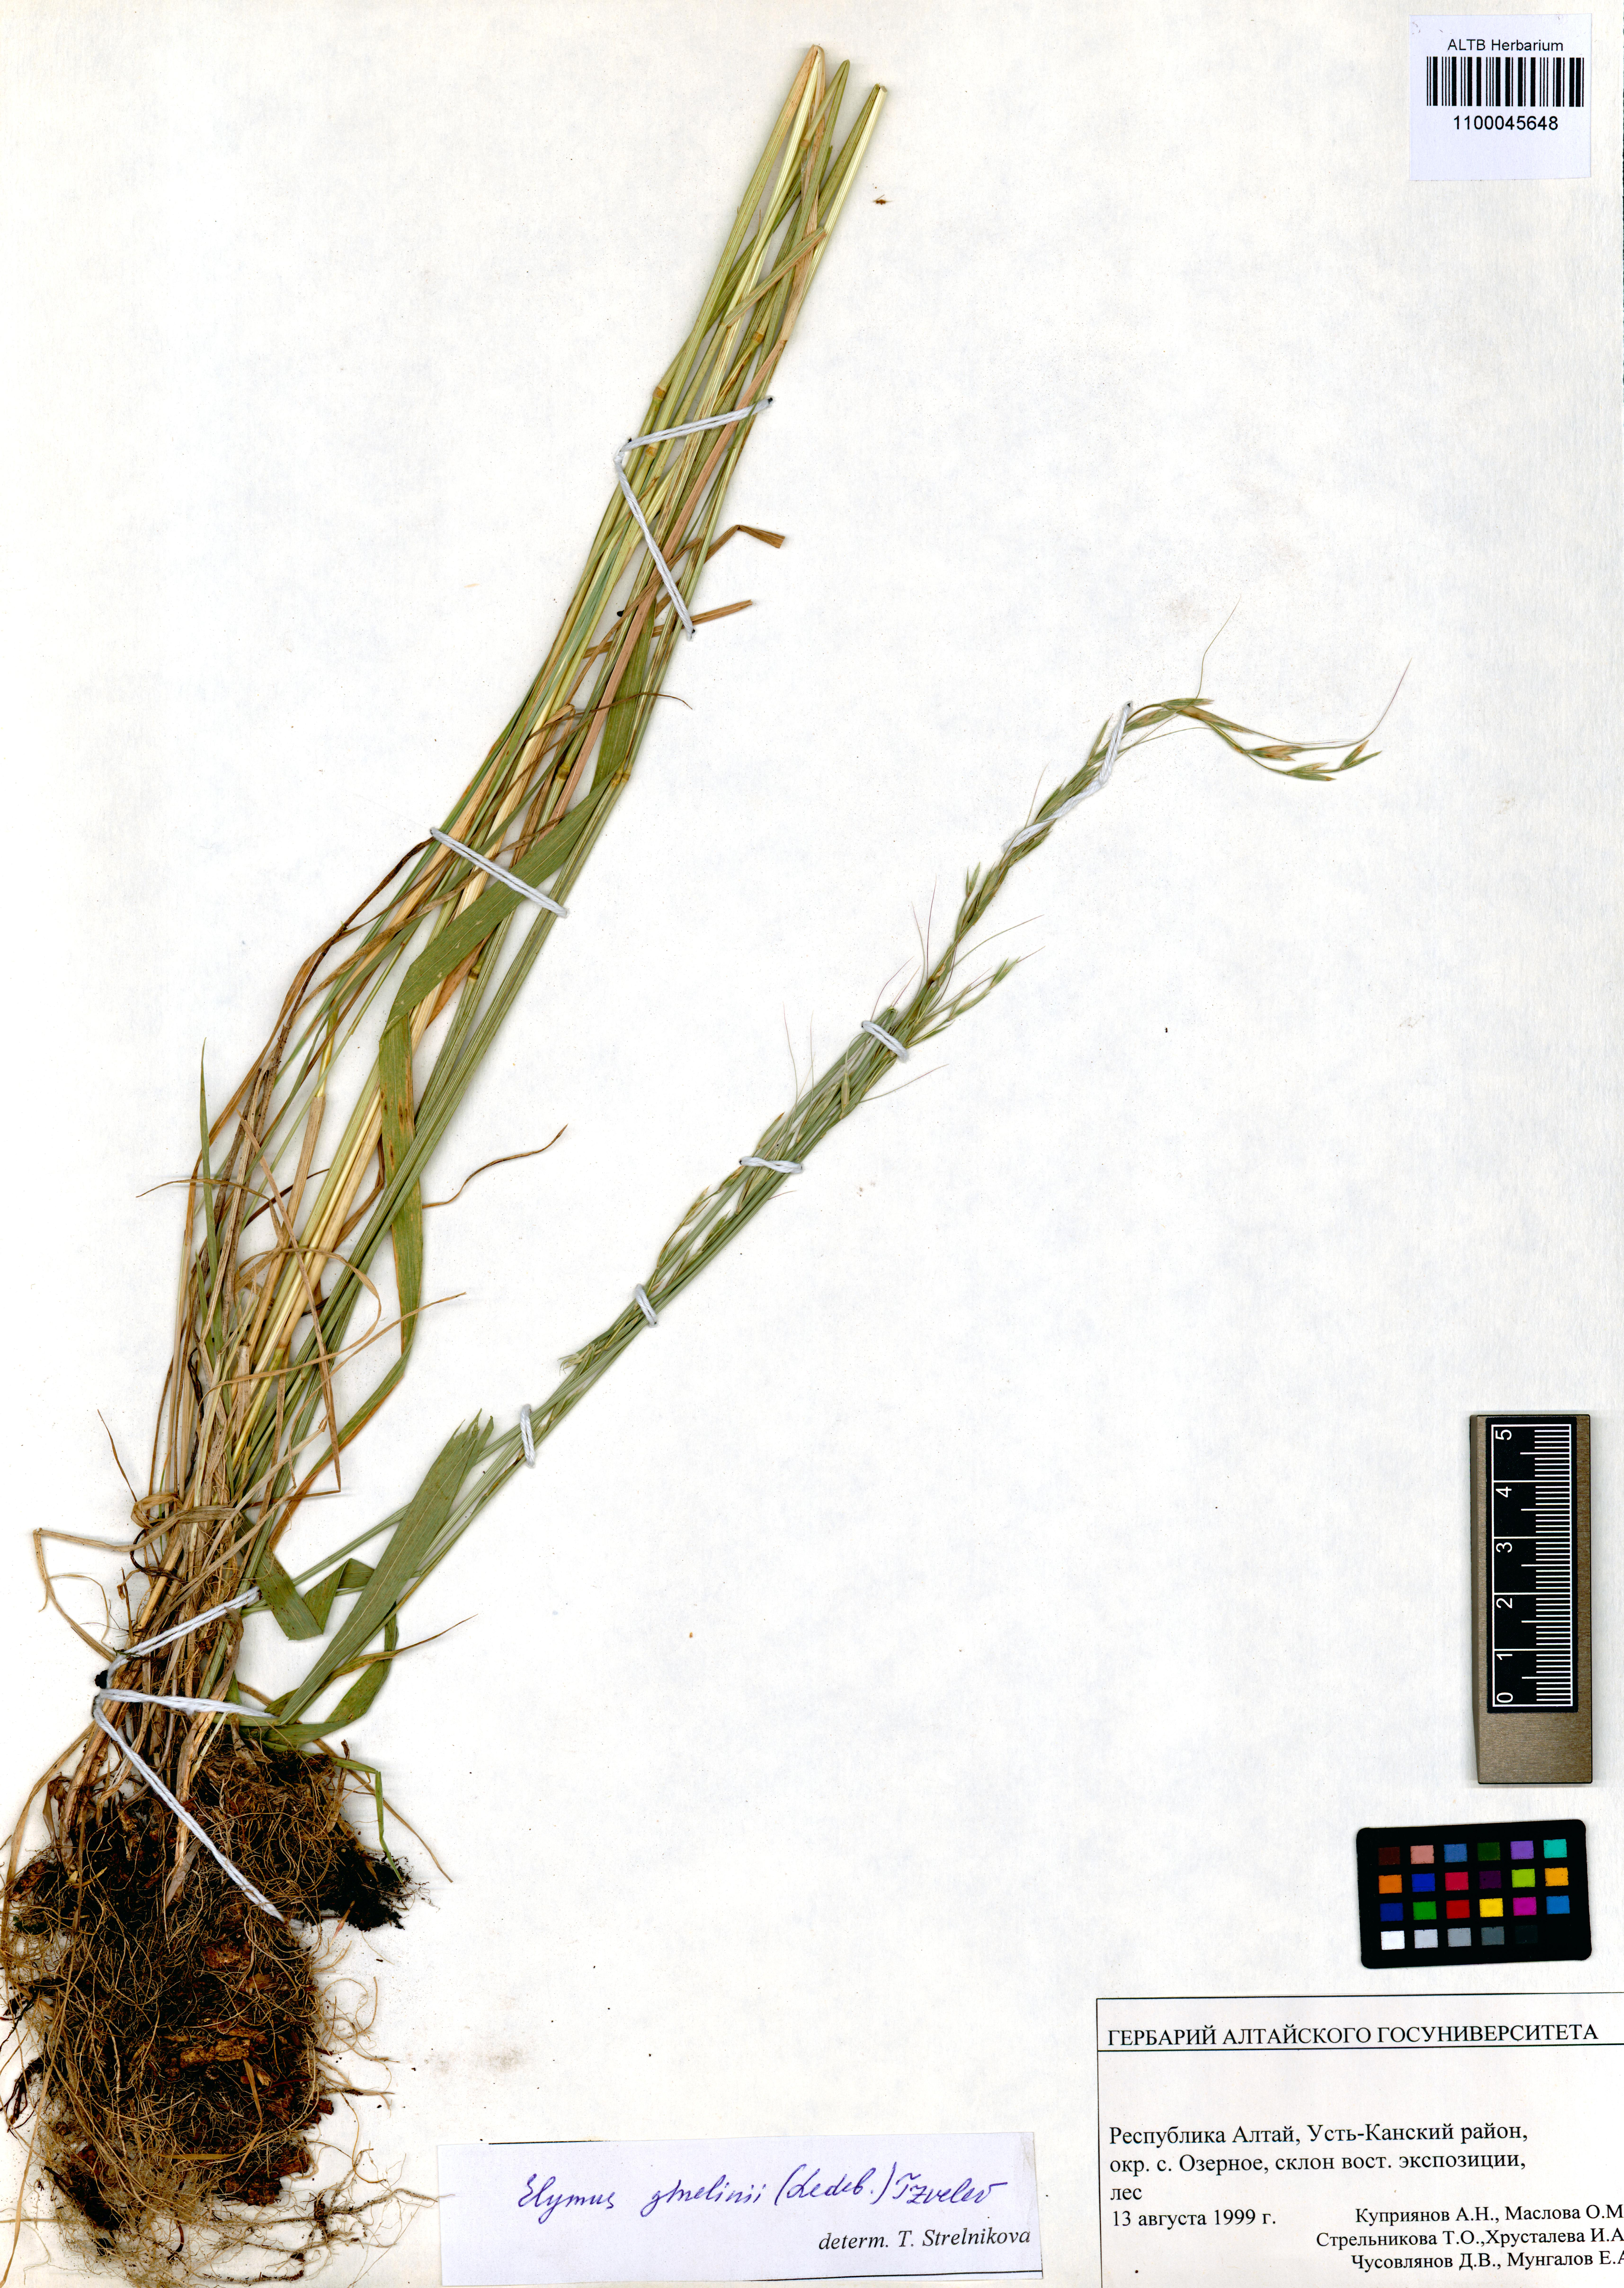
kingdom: Plantae
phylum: Tracheophyta
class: Liliopsida
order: Poales
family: Poaceae
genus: Elymus
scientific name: Elymus gmelinii
